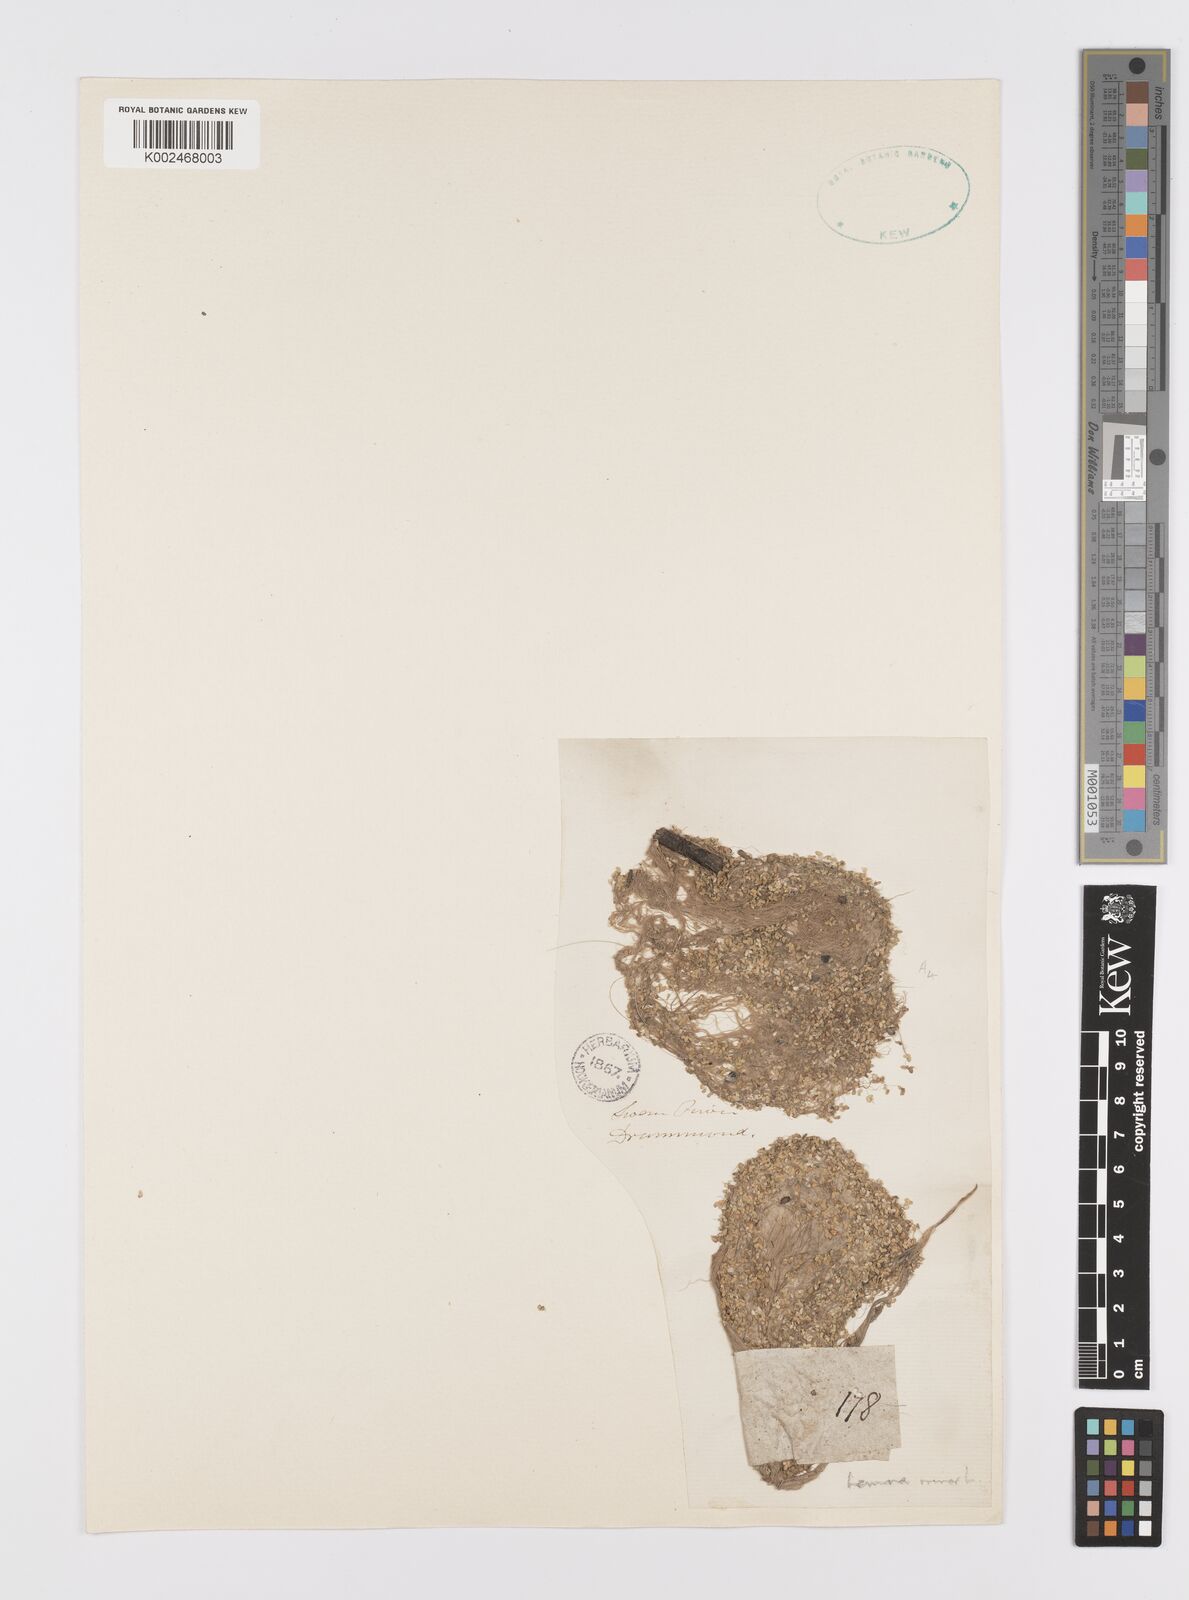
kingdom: Plantae
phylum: Tracheophyta
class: Liliopsida
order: Alismatales
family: Araceae
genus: Lemna
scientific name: Lemna minor
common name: Common duckweed
